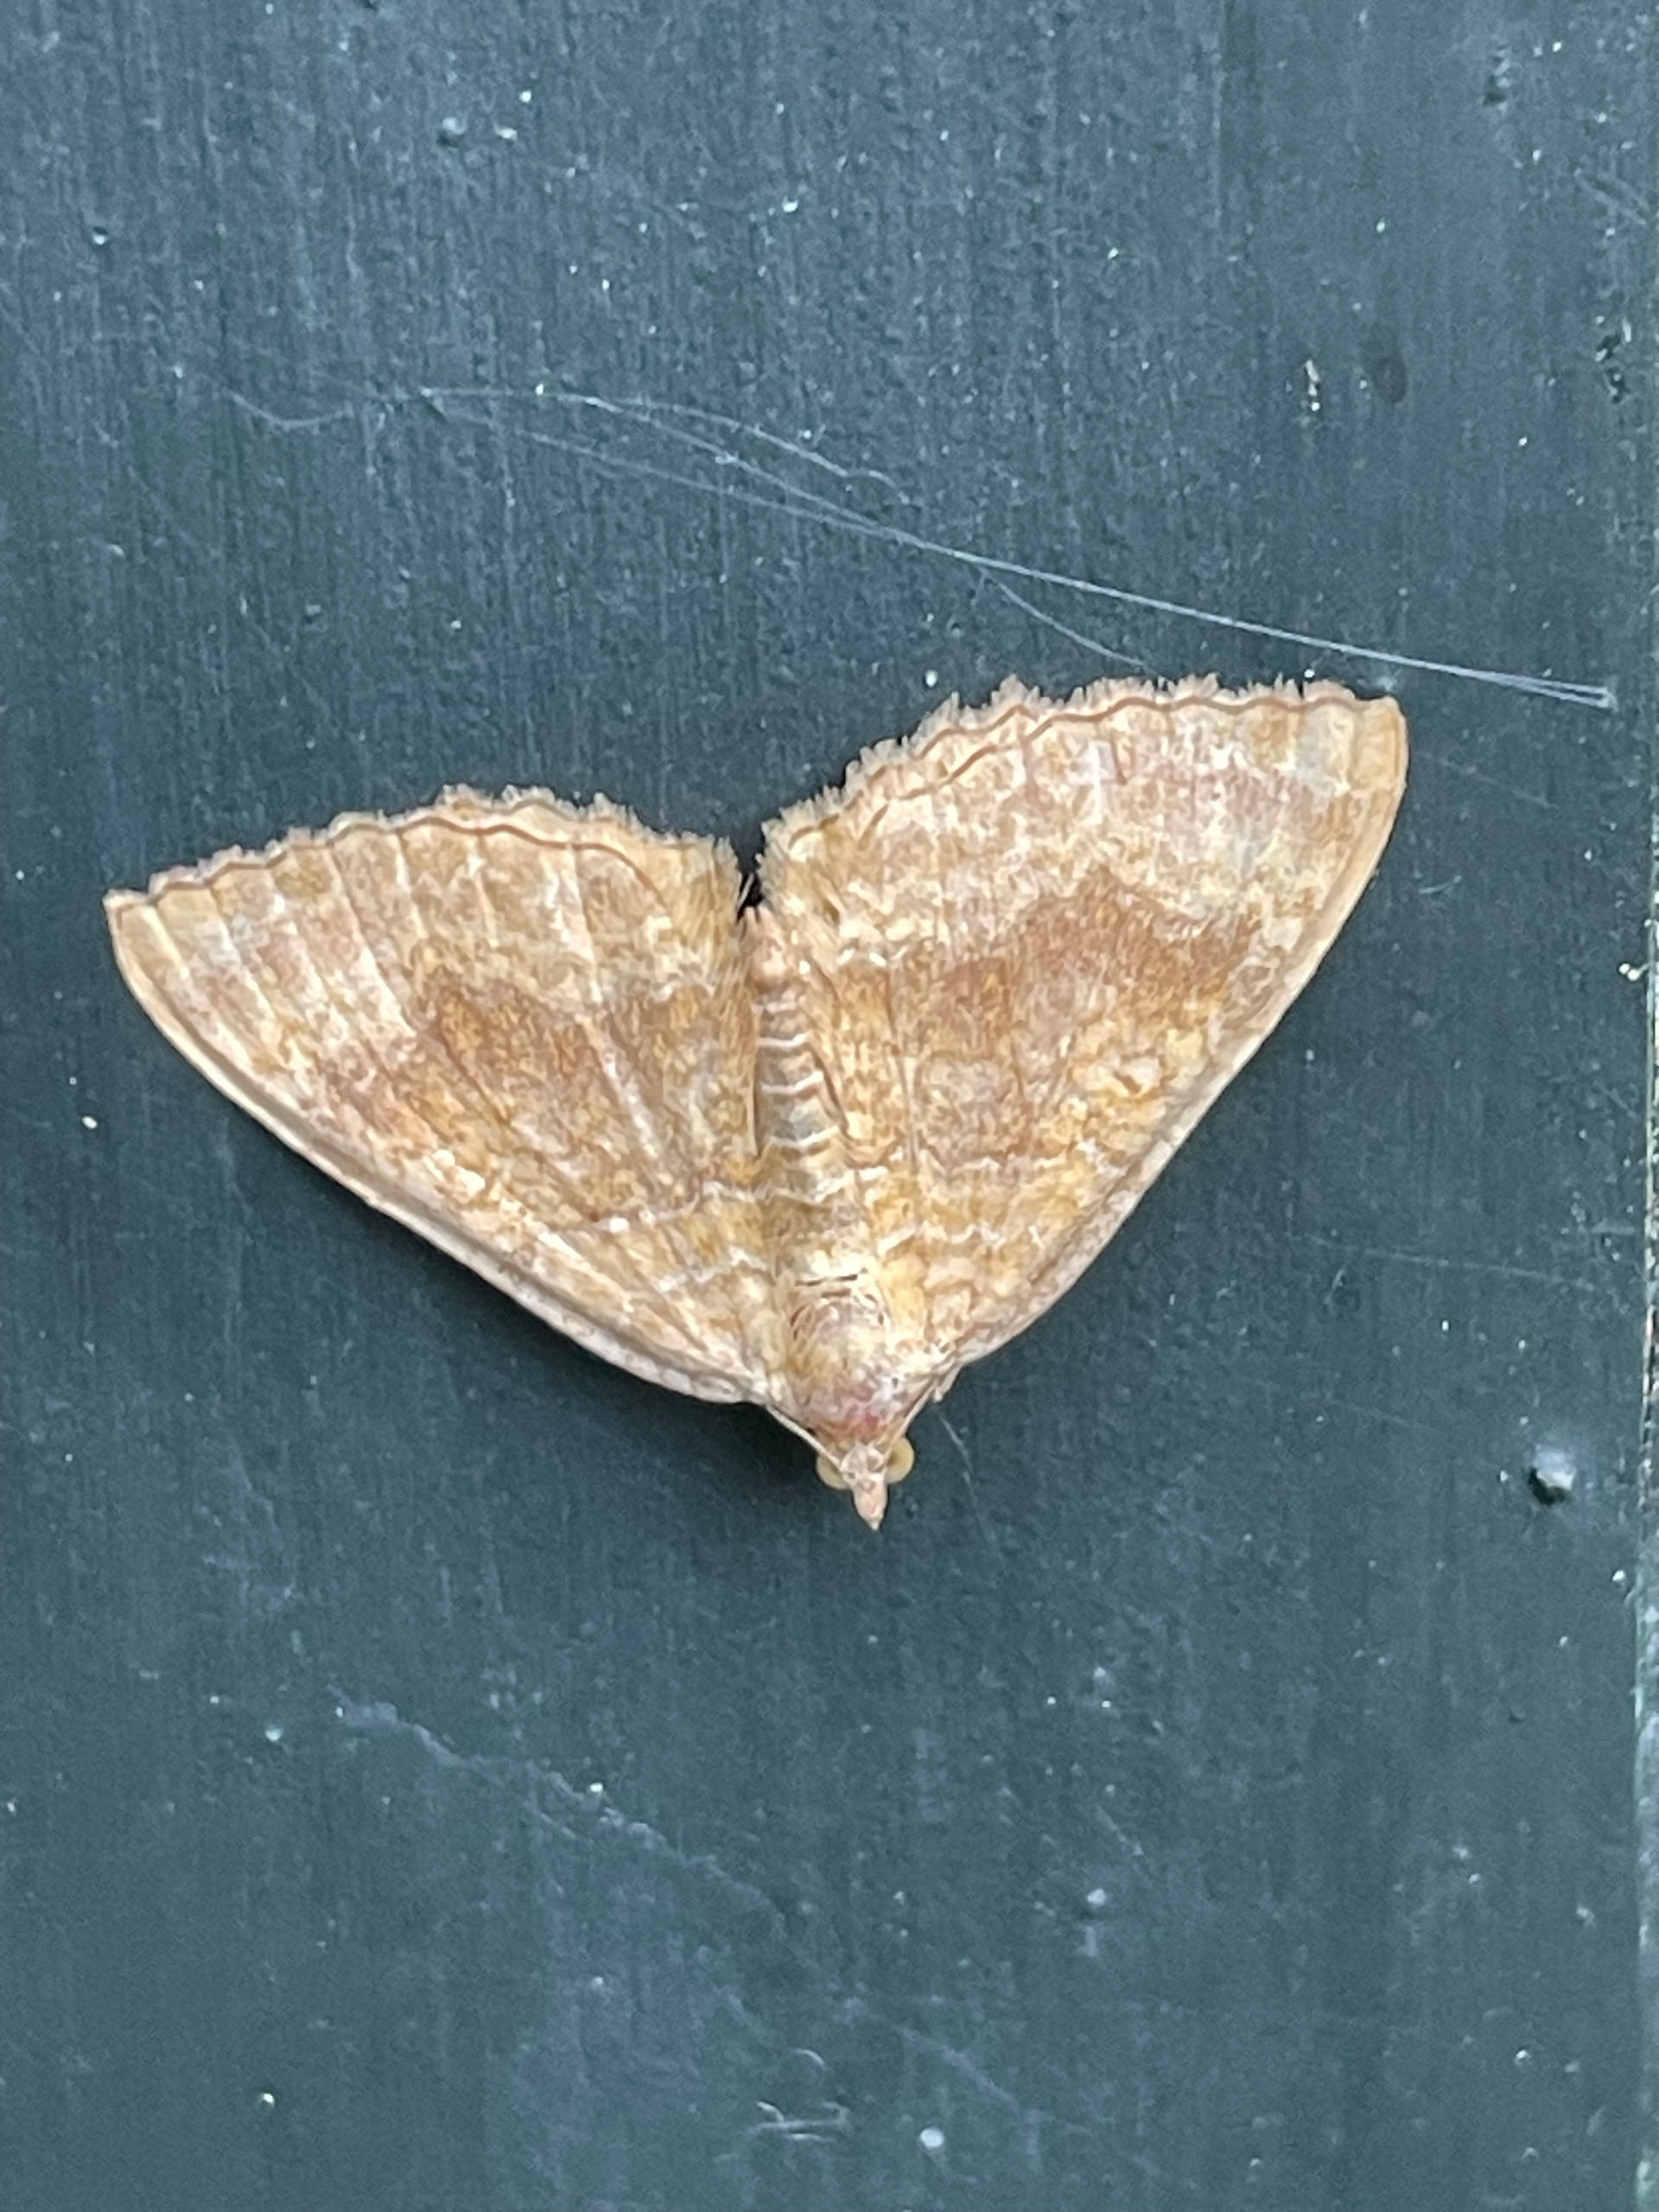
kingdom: Animalia
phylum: Arthropoda
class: Insecta
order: Lepidoptera
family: Geometridae
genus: Camptogramma
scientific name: Camptogramma bilineata
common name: Okkergul bladmåler
